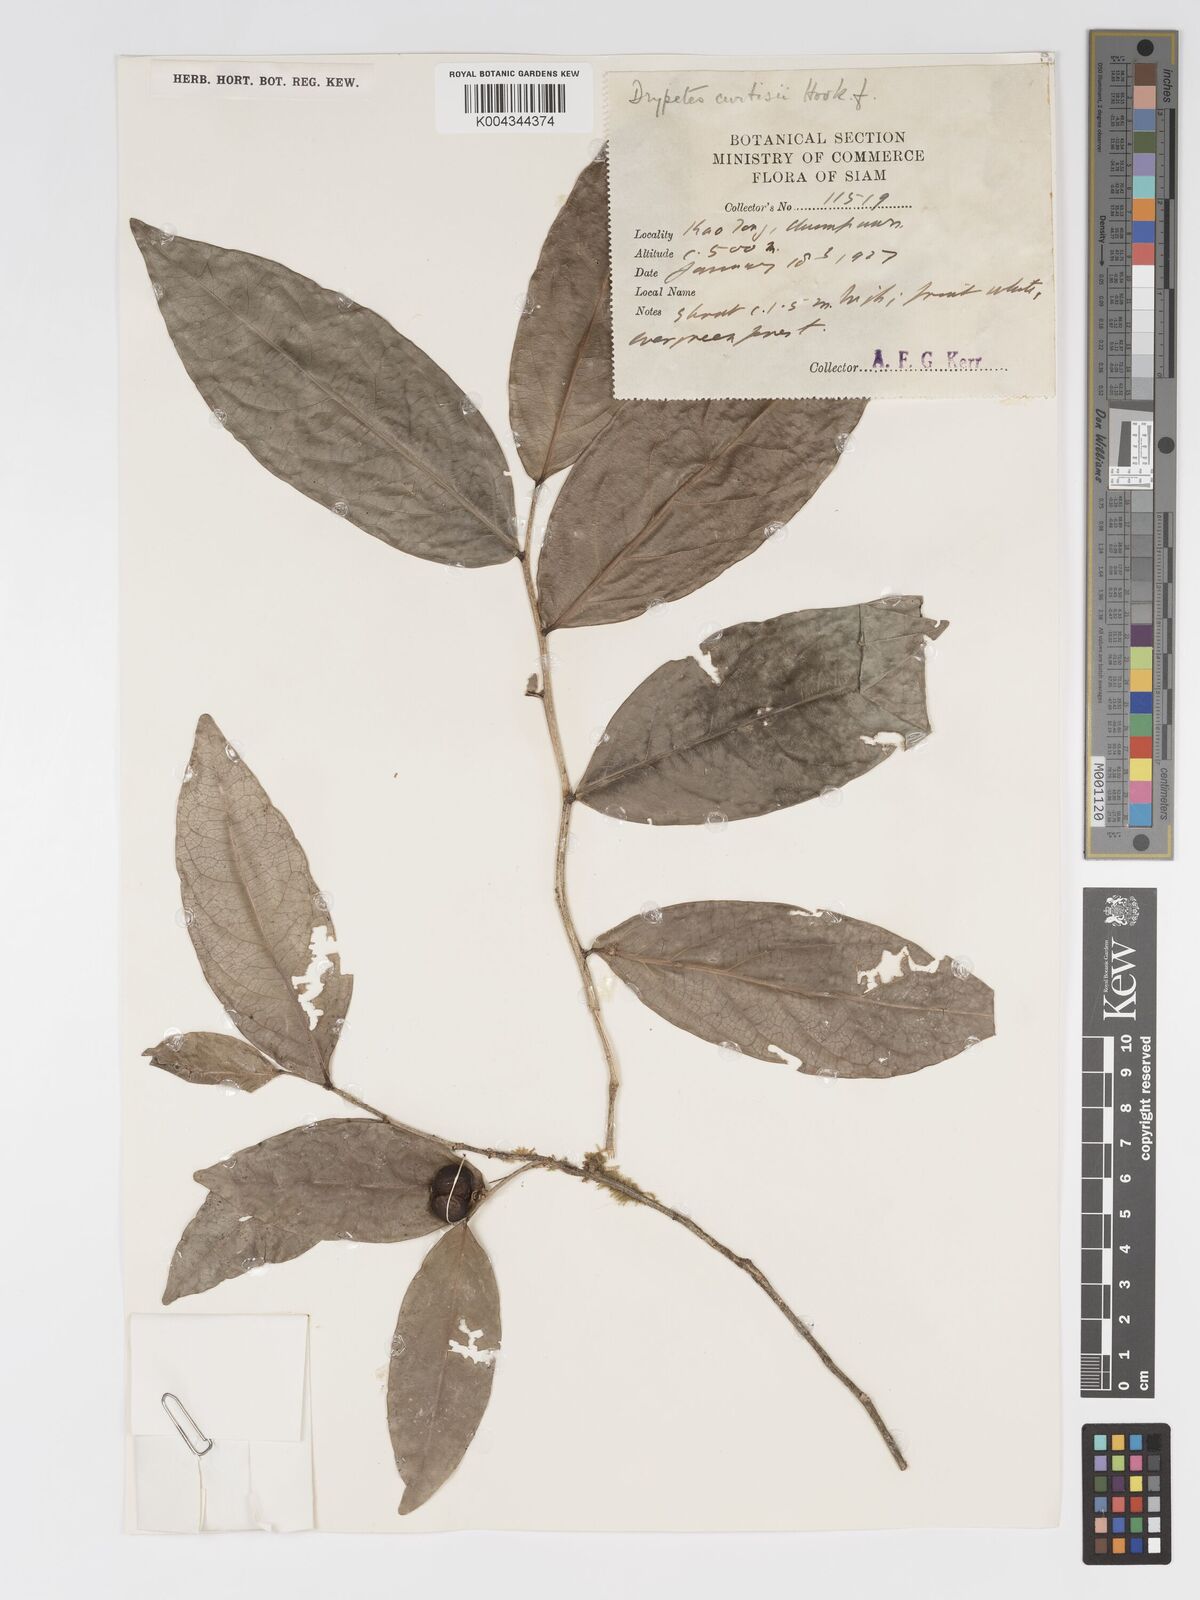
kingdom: Plantae
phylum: Tracheophyta
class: Magnoliopsida
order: Malpighiales
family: Putranjivaceae
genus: Drypetes
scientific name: Drypetes curtisii
